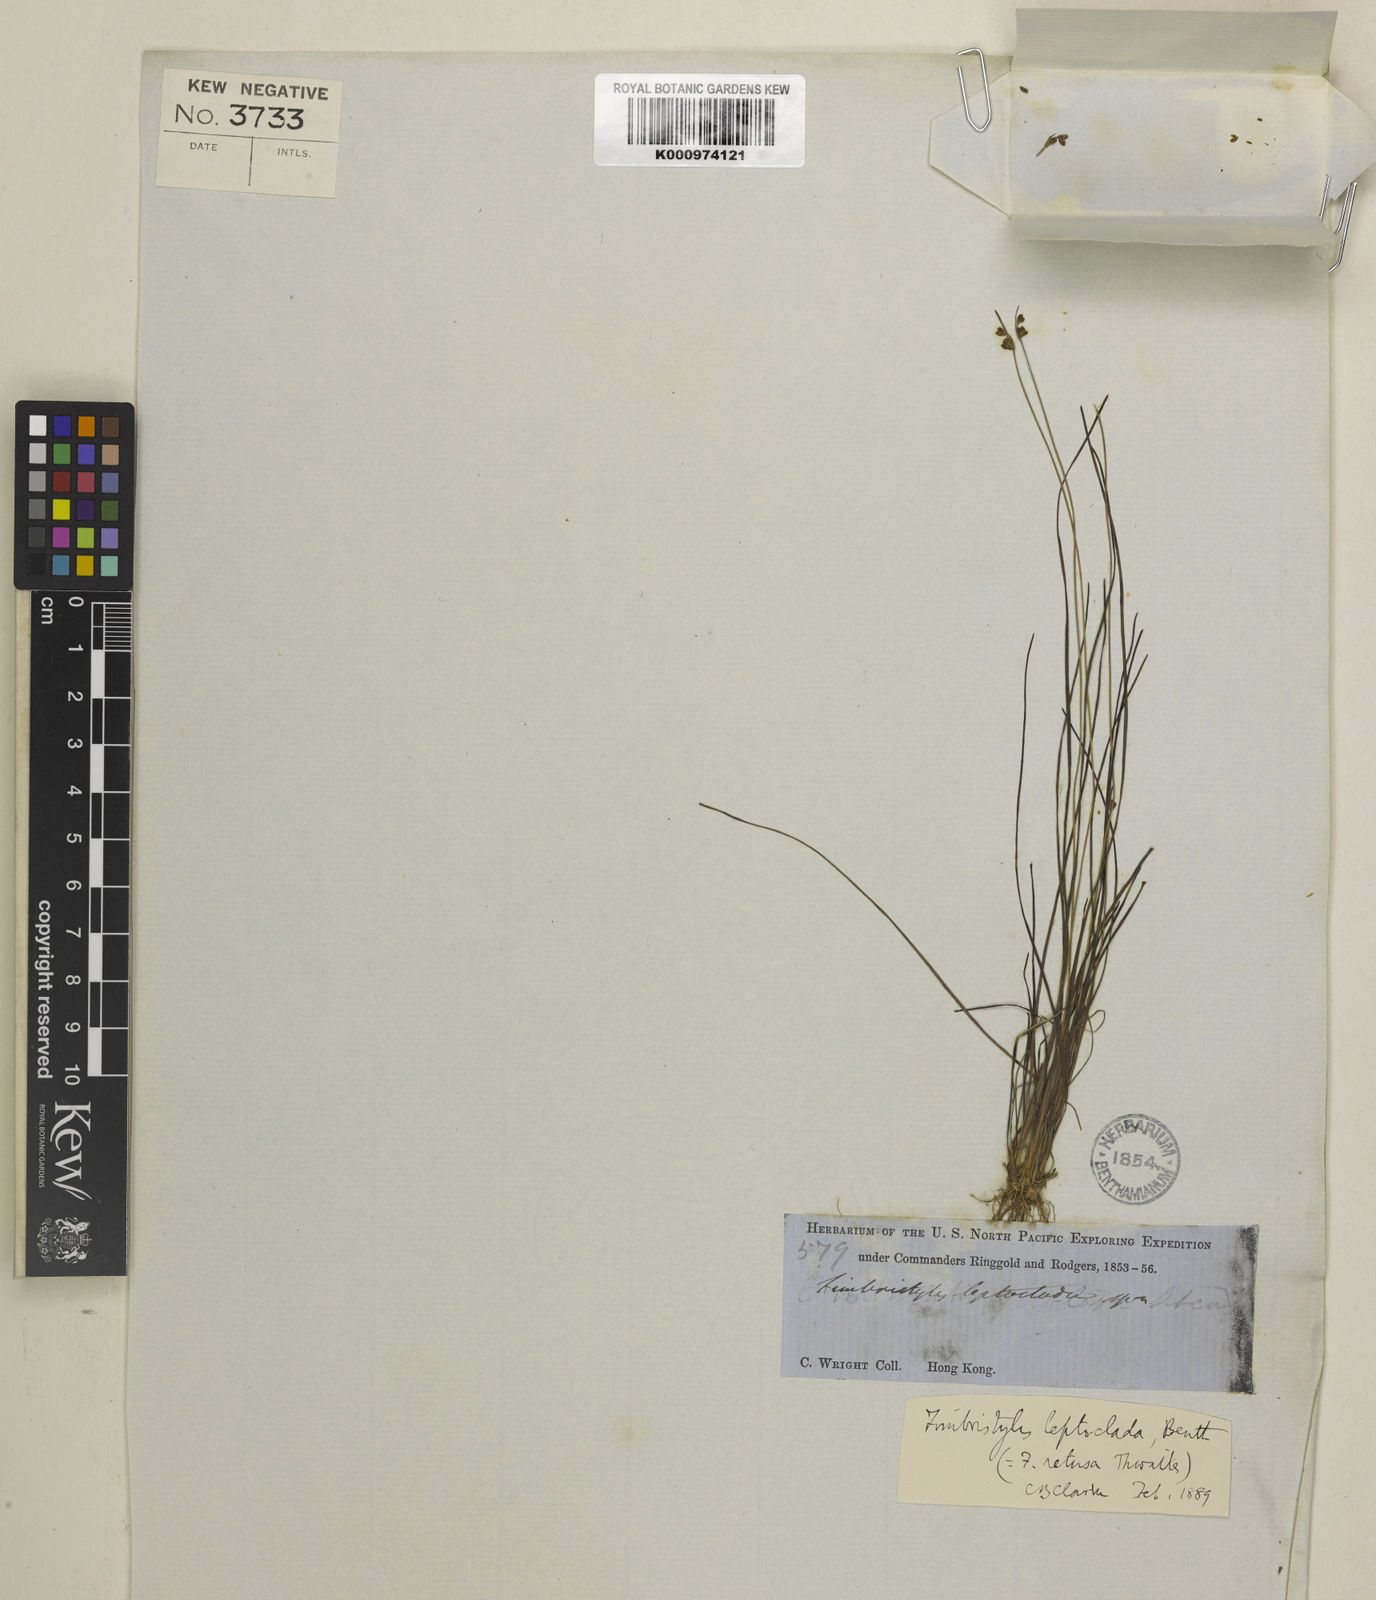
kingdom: Plantae
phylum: Tracheophyta
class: Liliopsida
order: Poales
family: Cyperaceae
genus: Fimbristylis
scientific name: Fimbristylis leptoclada
